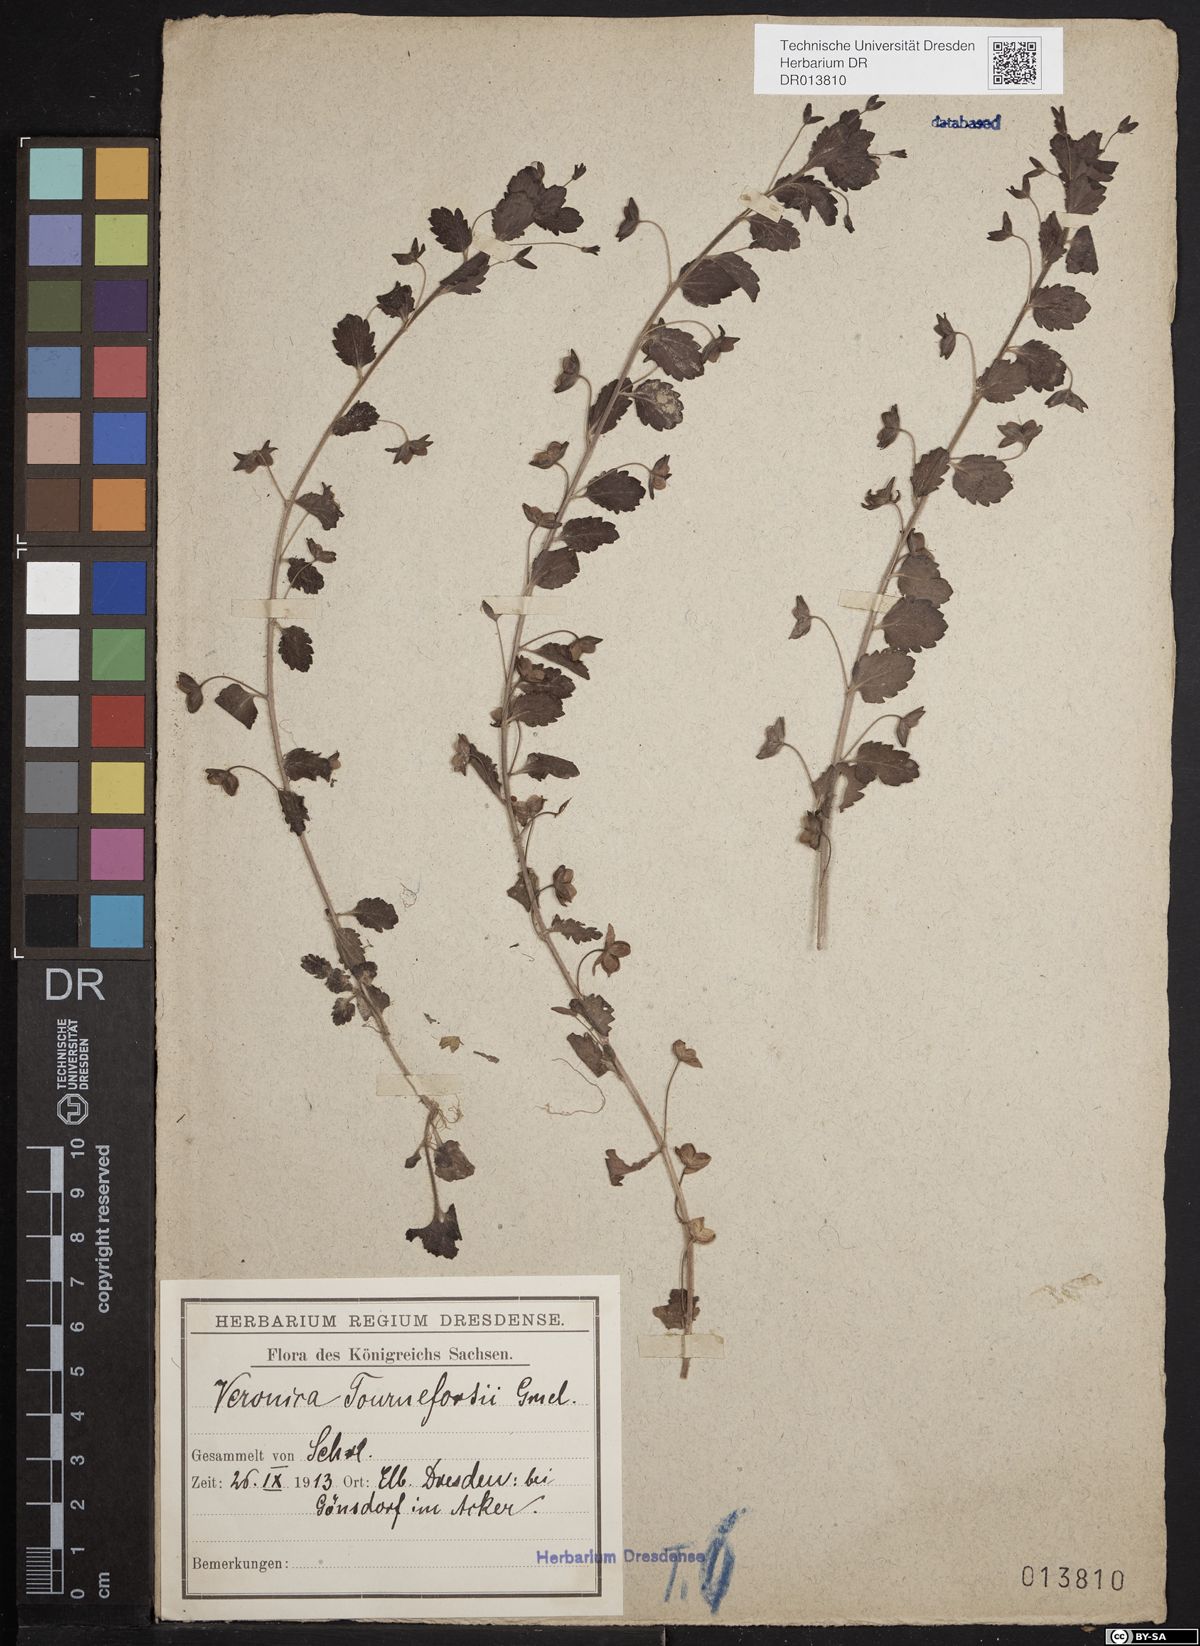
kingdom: Plantae
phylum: Tracheophyta
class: Magnoliopsida
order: Lamiales
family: Plantaginaceae
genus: Veronica
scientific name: Veronica persica
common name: Common field-speedwell
